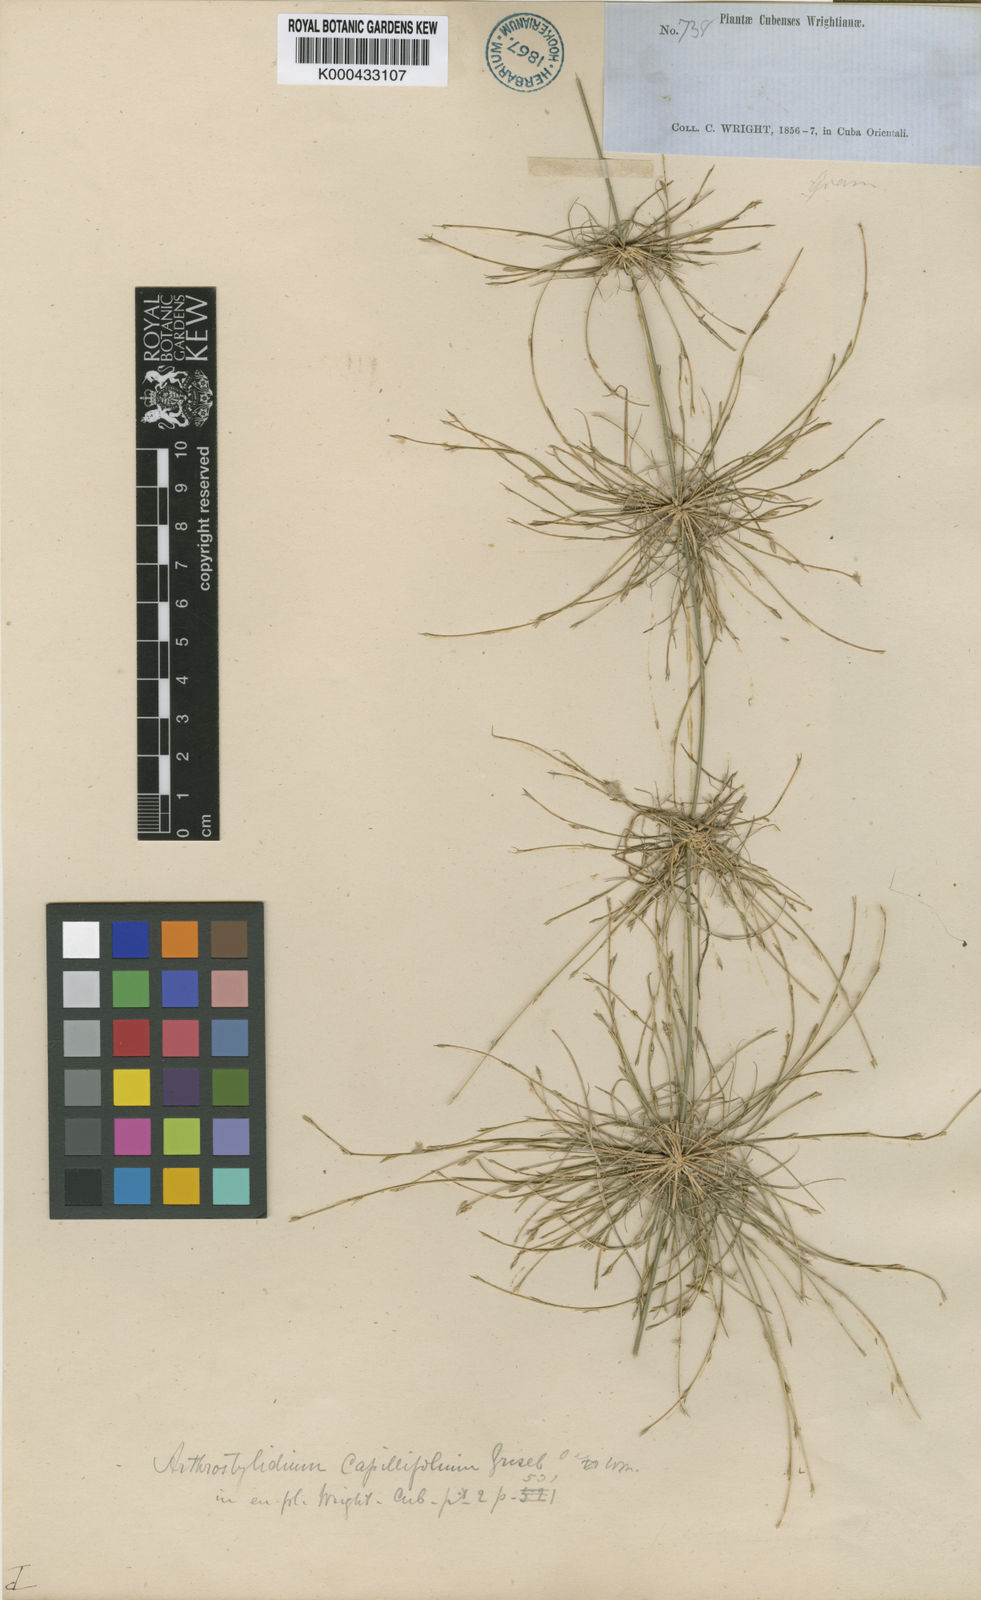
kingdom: Plantae
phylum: Tracheophyta
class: Liliopsida
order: Poales
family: Poaceae
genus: Tibisia
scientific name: Tibisia farcta
